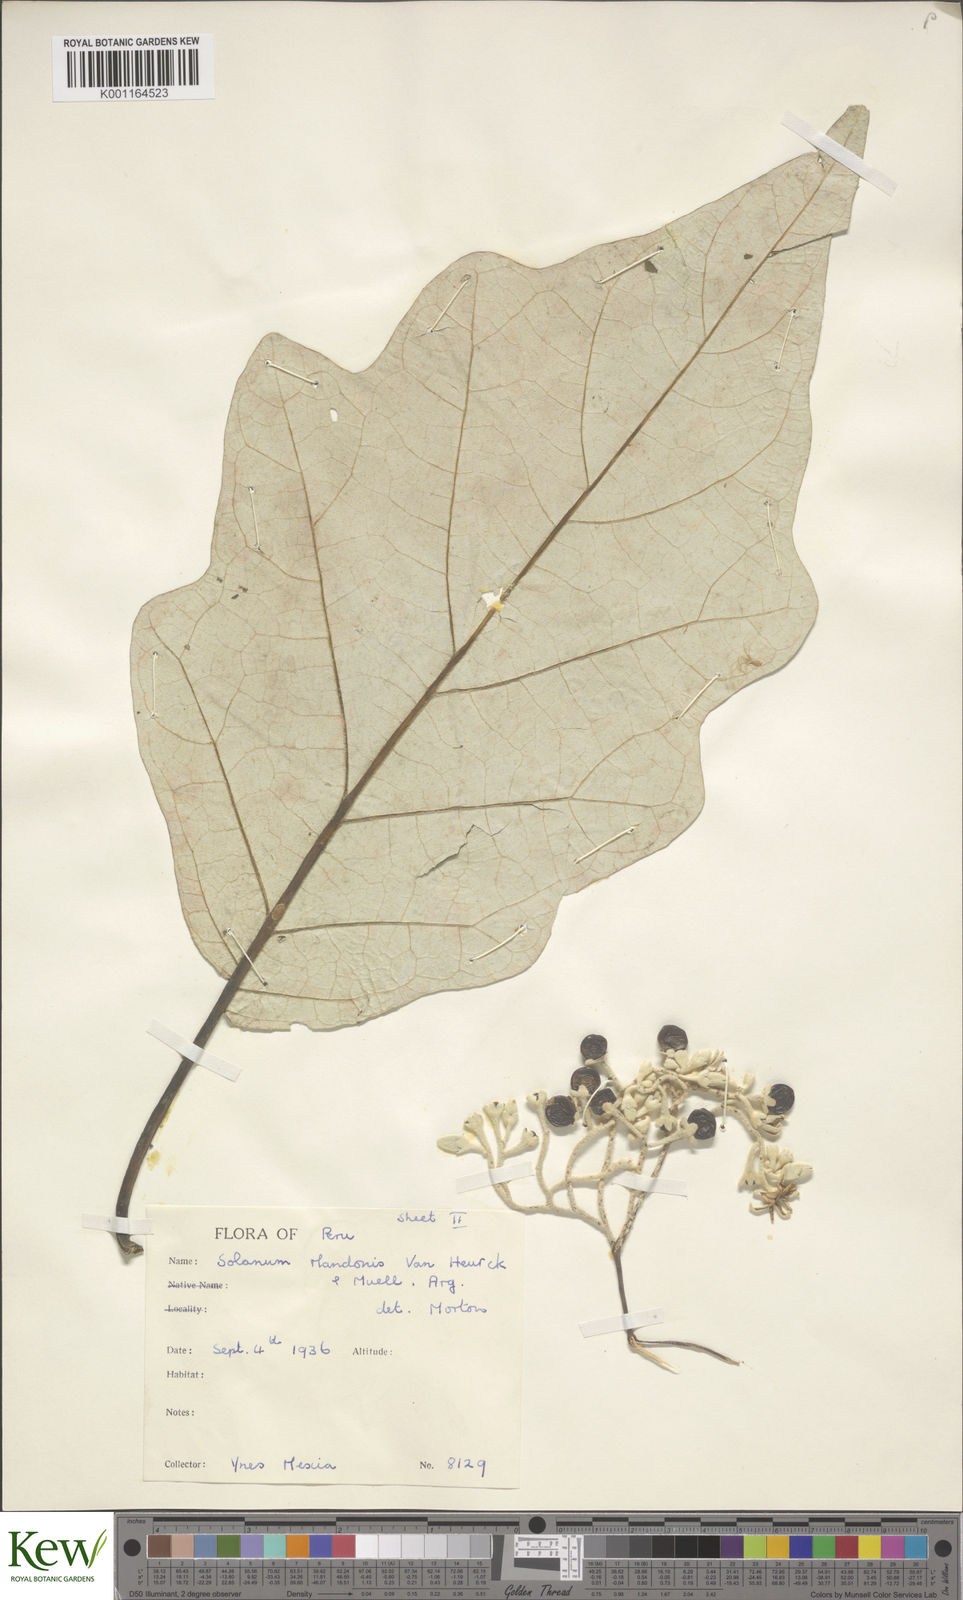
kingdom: Plantae
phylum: Tracheophyta
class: Magnoliopsida
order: Solanales
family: Solanaceae
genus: Solanum
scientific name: Solanum albidum
